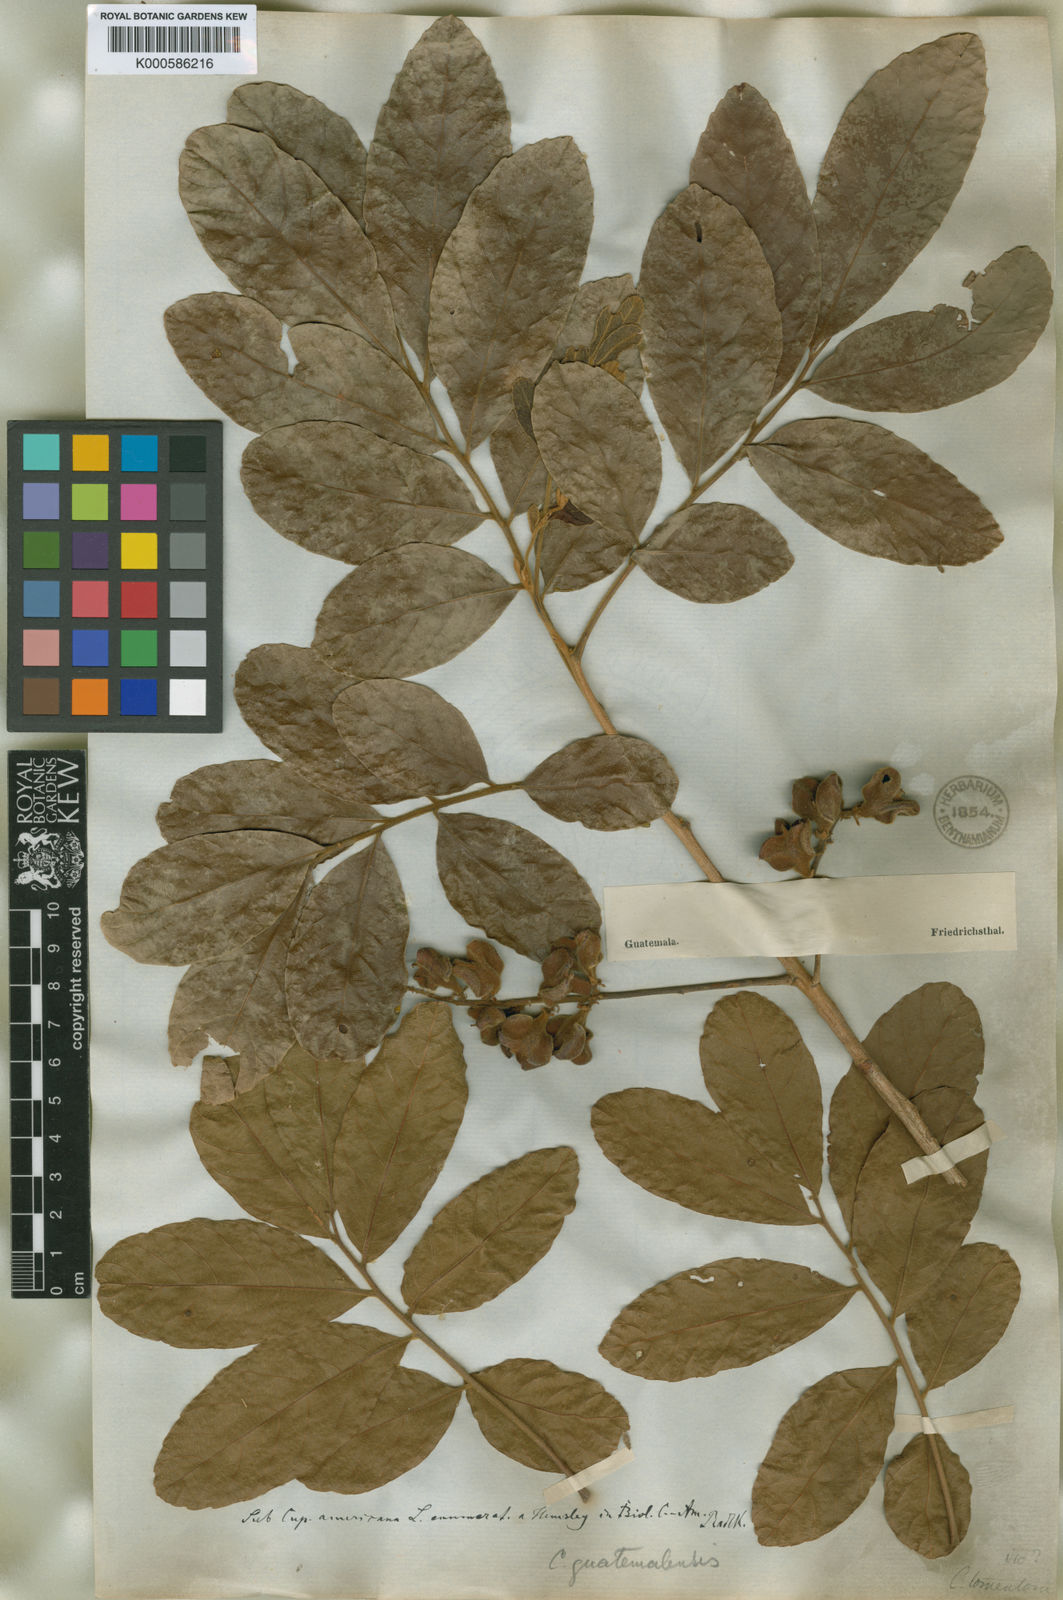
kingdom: Plantae
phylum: Tracheophyta
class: Magnoliopsida
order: Sapindales
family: Sapindaceae
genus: Cupania
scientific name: Cupania guatemalensis
